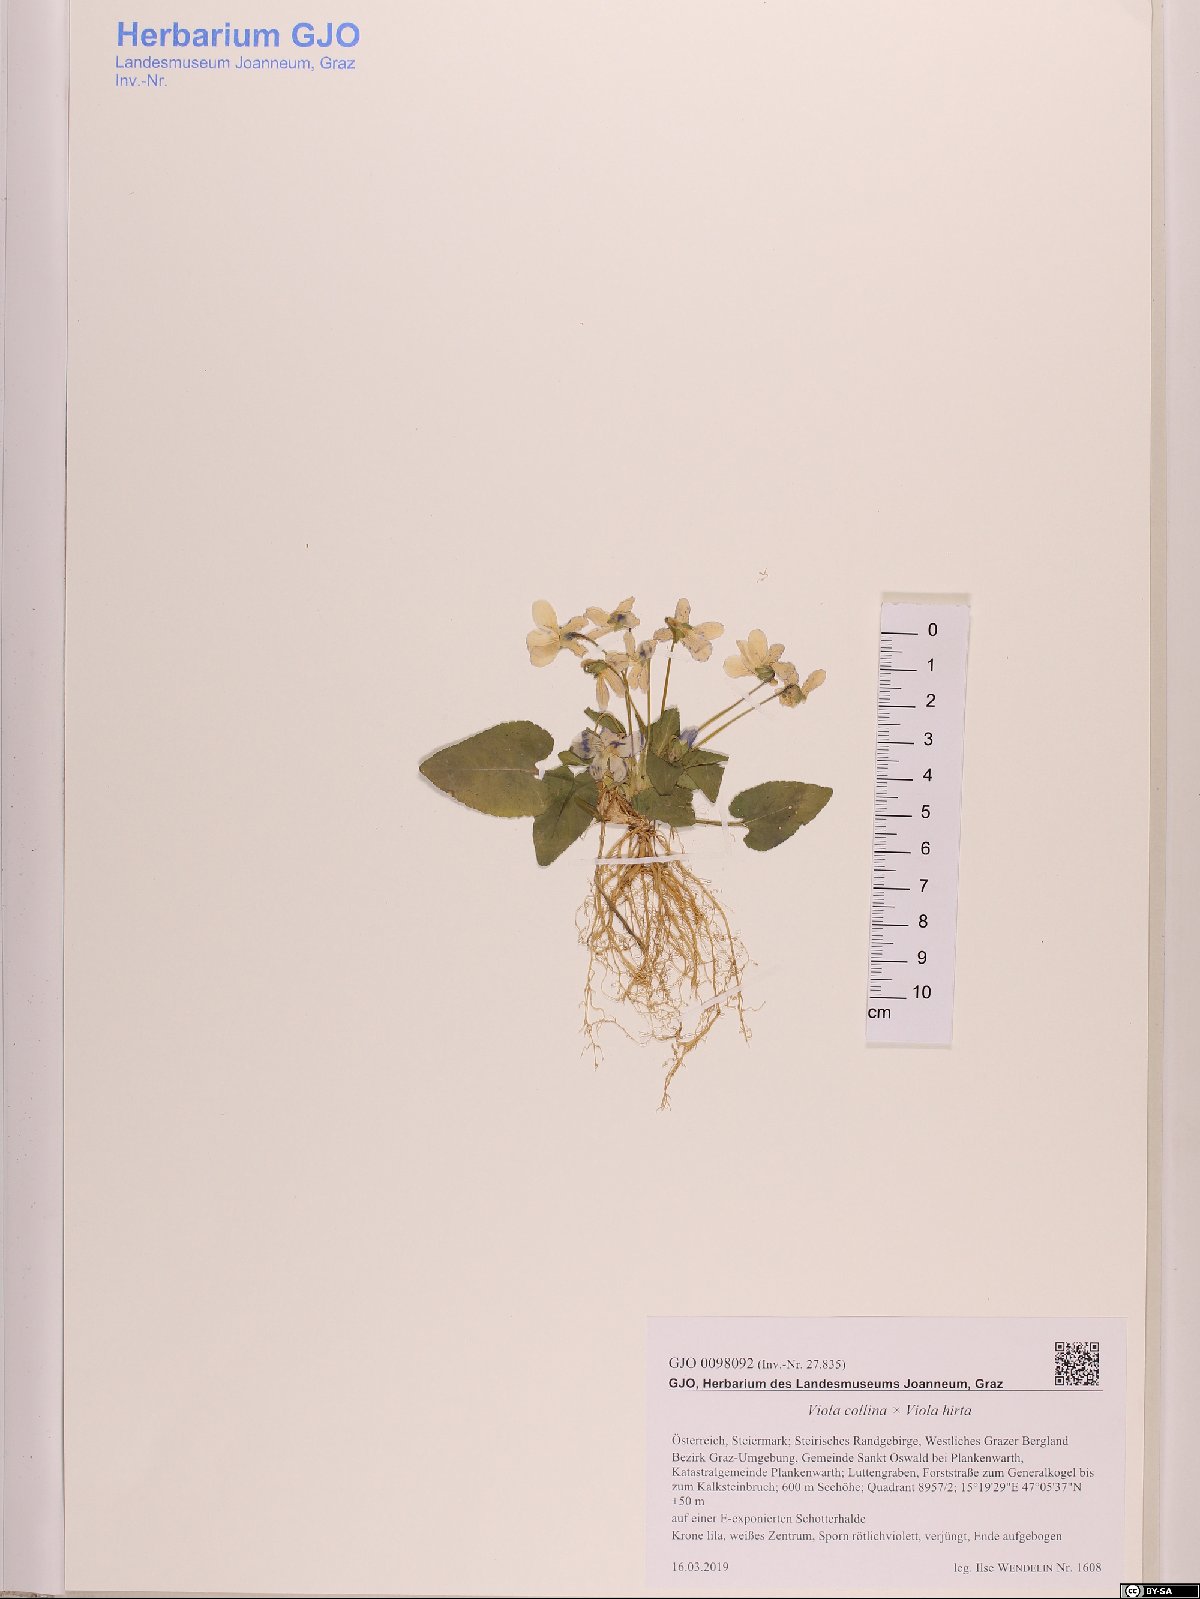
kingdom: Plantae
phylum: Tracheophyta
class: Magnoliopsida
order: Malpighiales
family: Violaceae
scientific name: Violaceae
